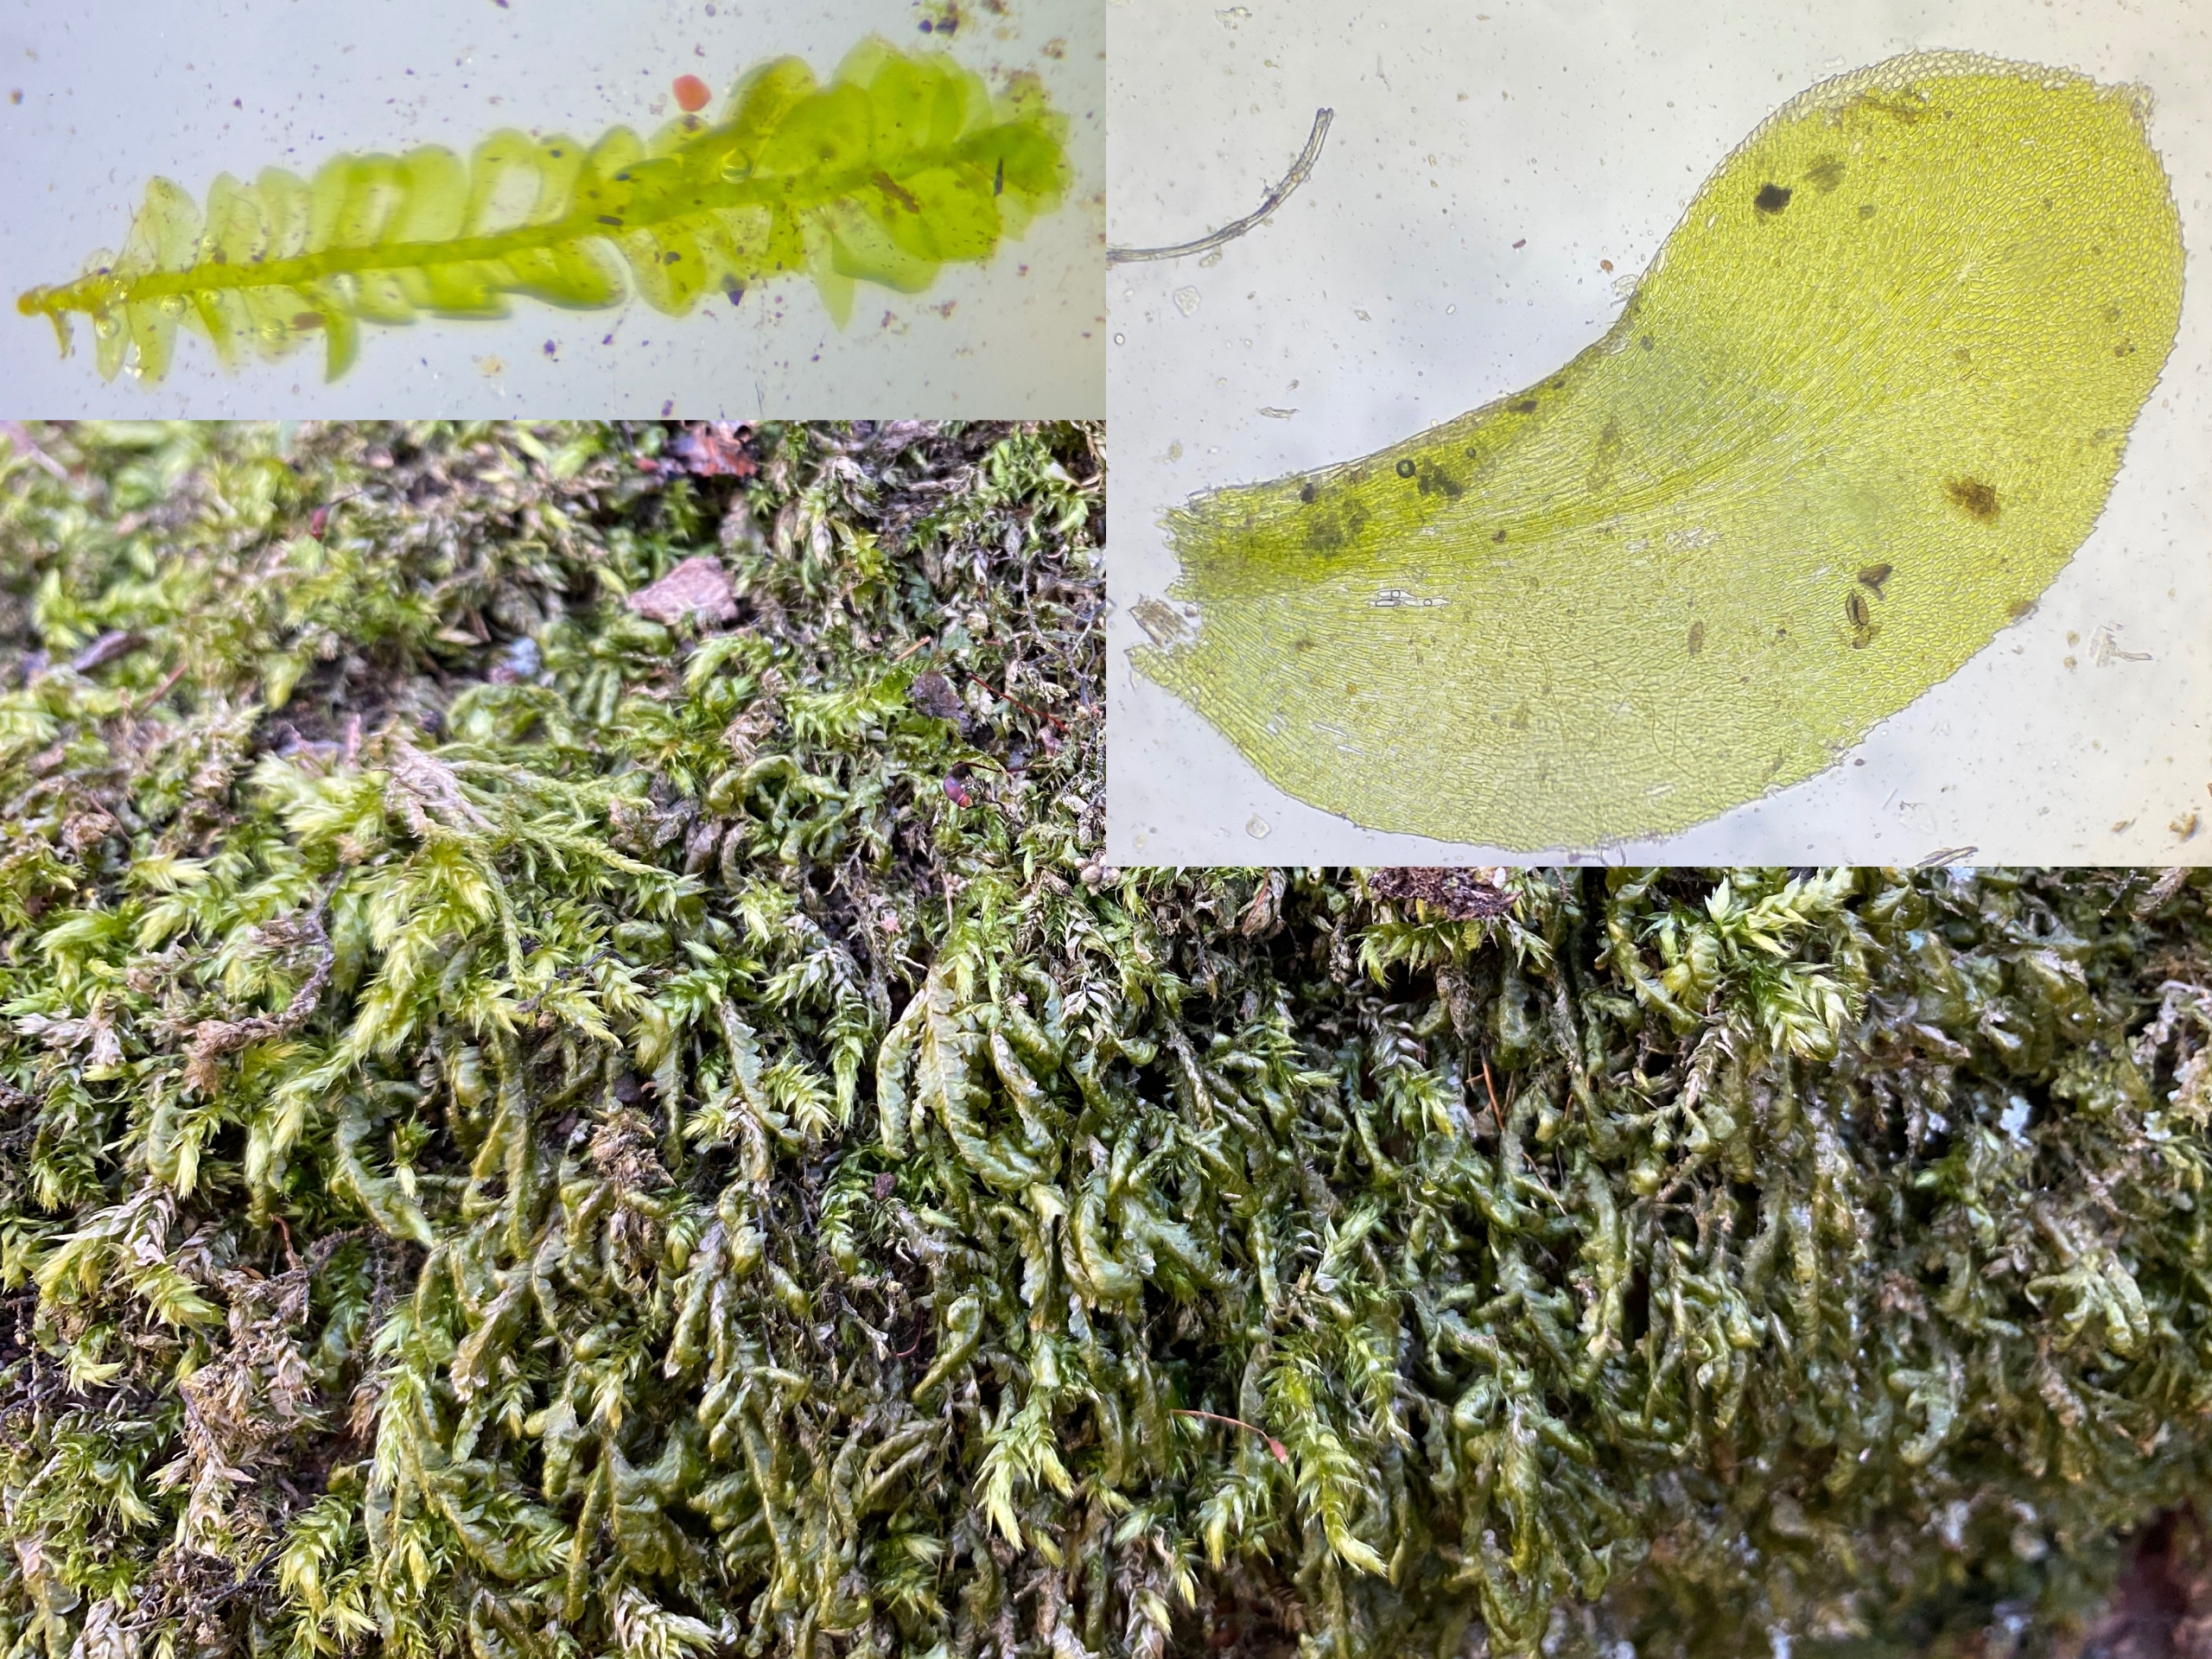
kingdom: Plantae
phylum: Bryophyta
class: Bryopsida
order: Hypnales
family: Neckeraceae
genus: Homalia
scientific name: Homalia trichomanoides
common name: Skov-tungemos
